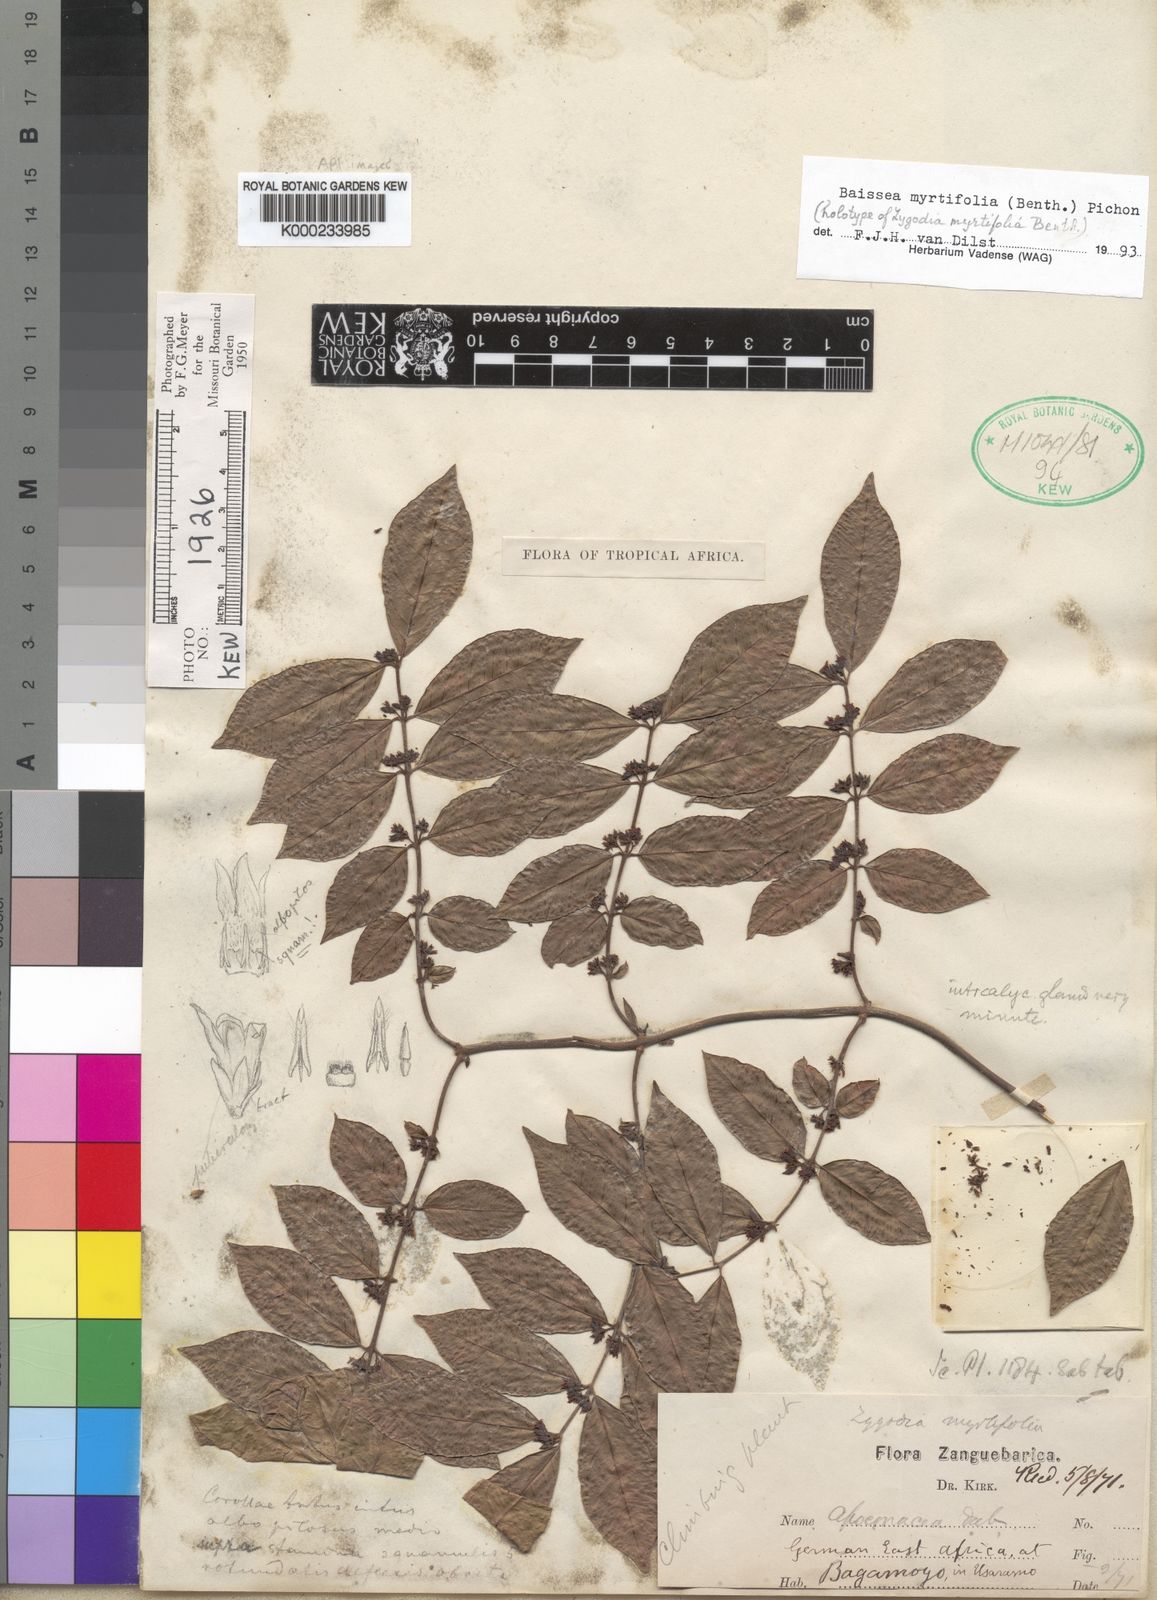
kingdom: Plantae
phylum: Tracheophyta
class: Magnoliopsida
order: Gentianales
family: Apocynaceae
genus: Baissea
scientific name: Baissea myrtifolia
